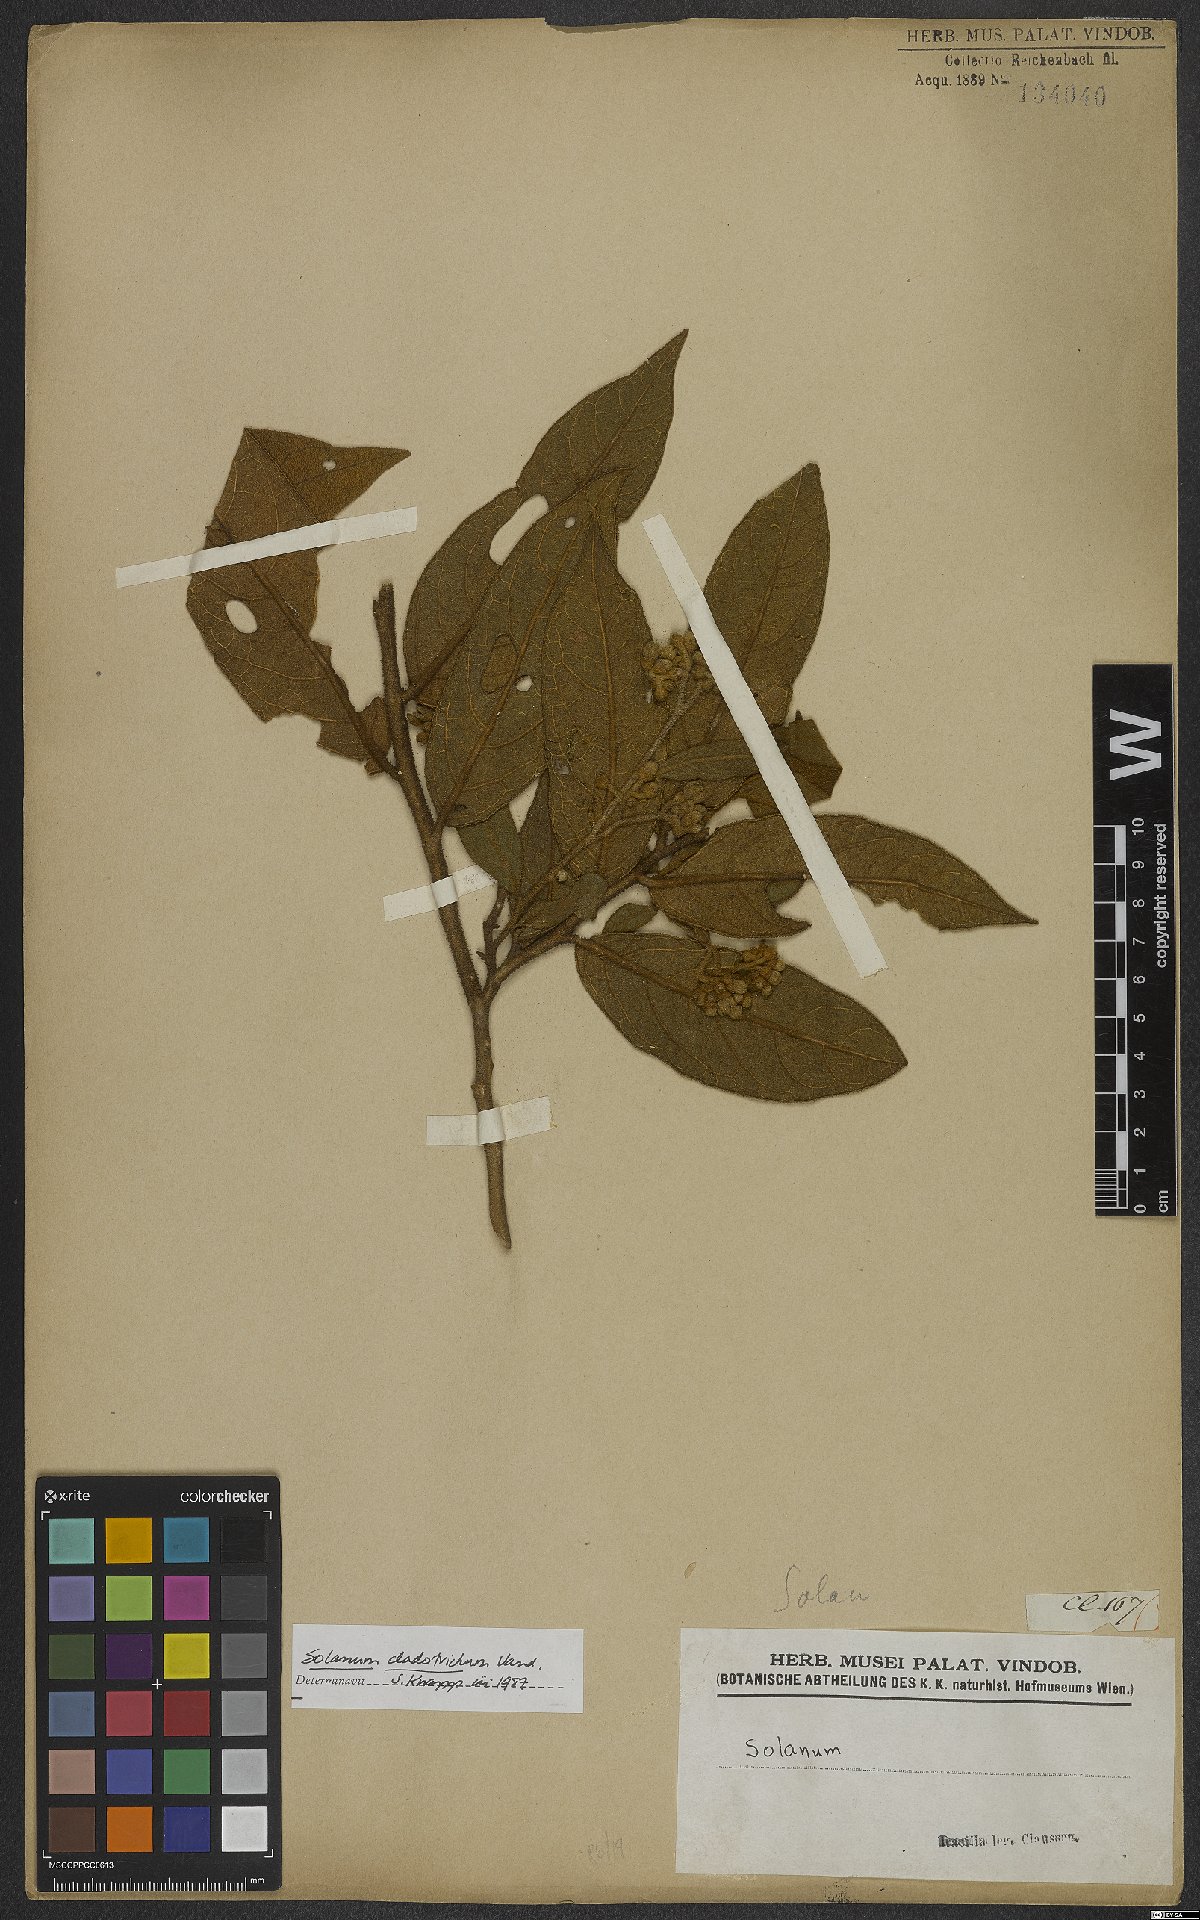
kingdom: Plantae
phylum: Tracheophyta
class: Magnoliopsida
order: Solanales
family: Solanaceae
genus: Solanum
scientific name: Solanum jussiaei
